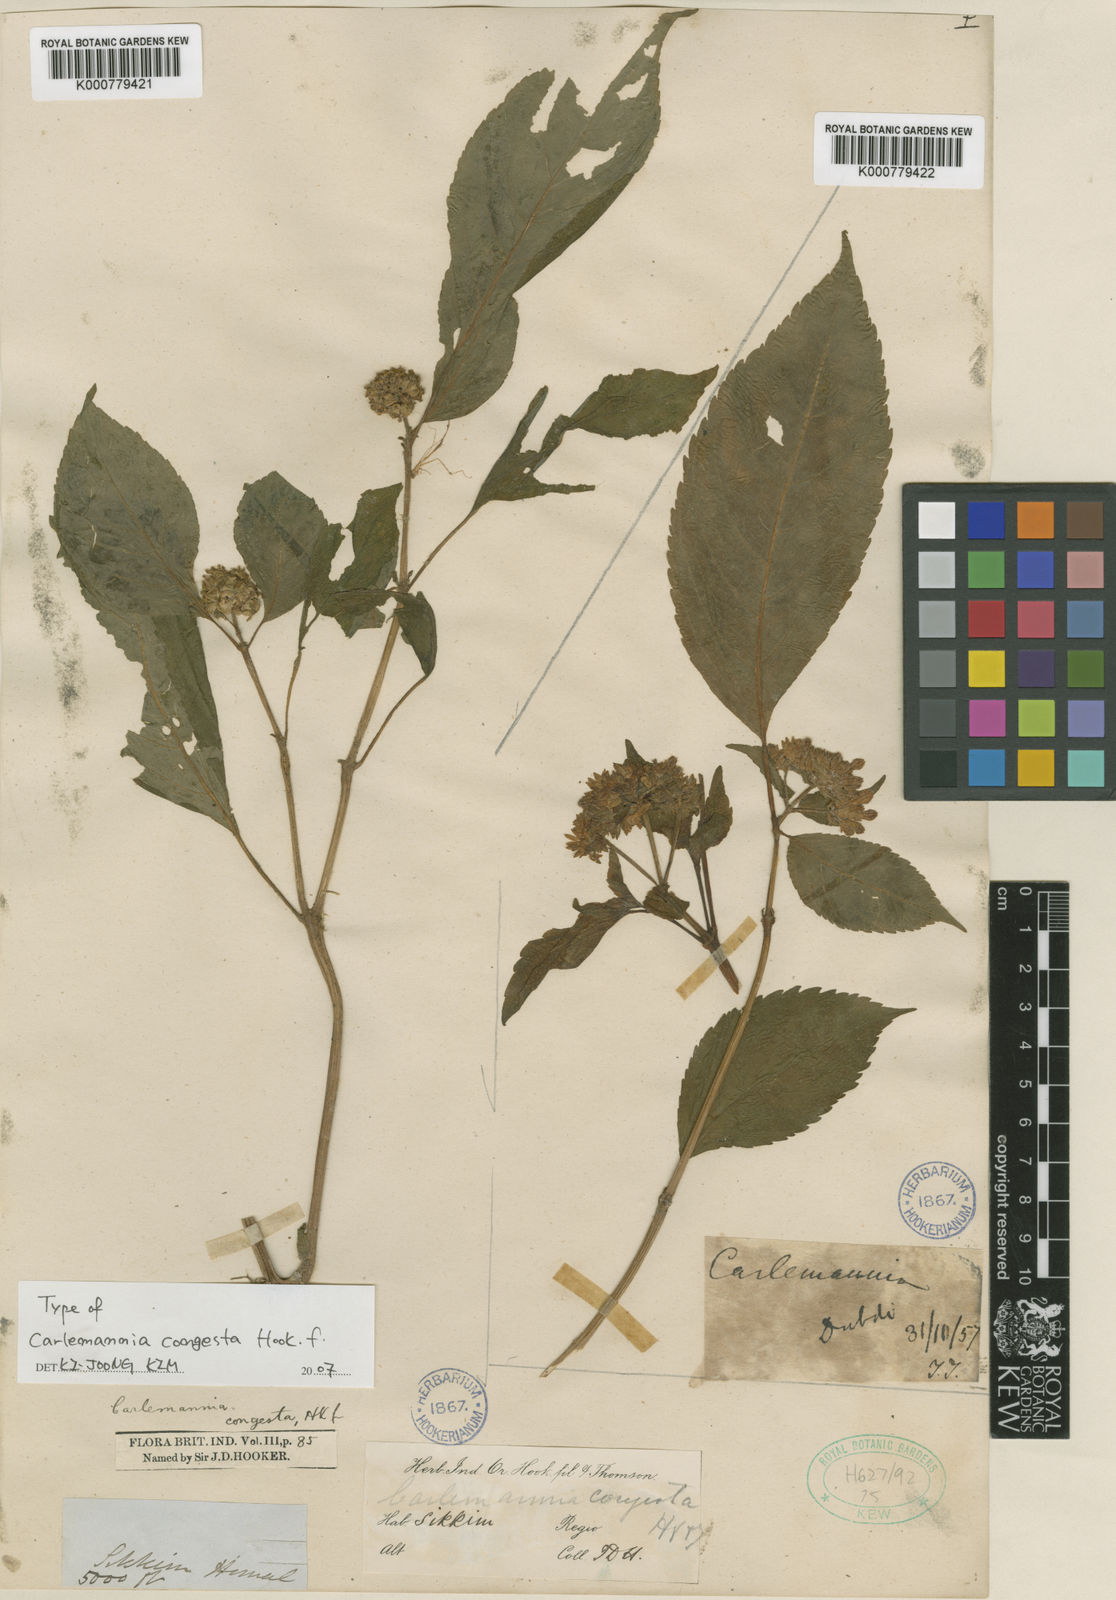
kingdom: Plantae
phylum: Tracheophyta
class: Magnoliopsida
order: Lamiales
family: Carlemanniaceae
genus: Carlemannia
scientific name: Carlemannia congesta
